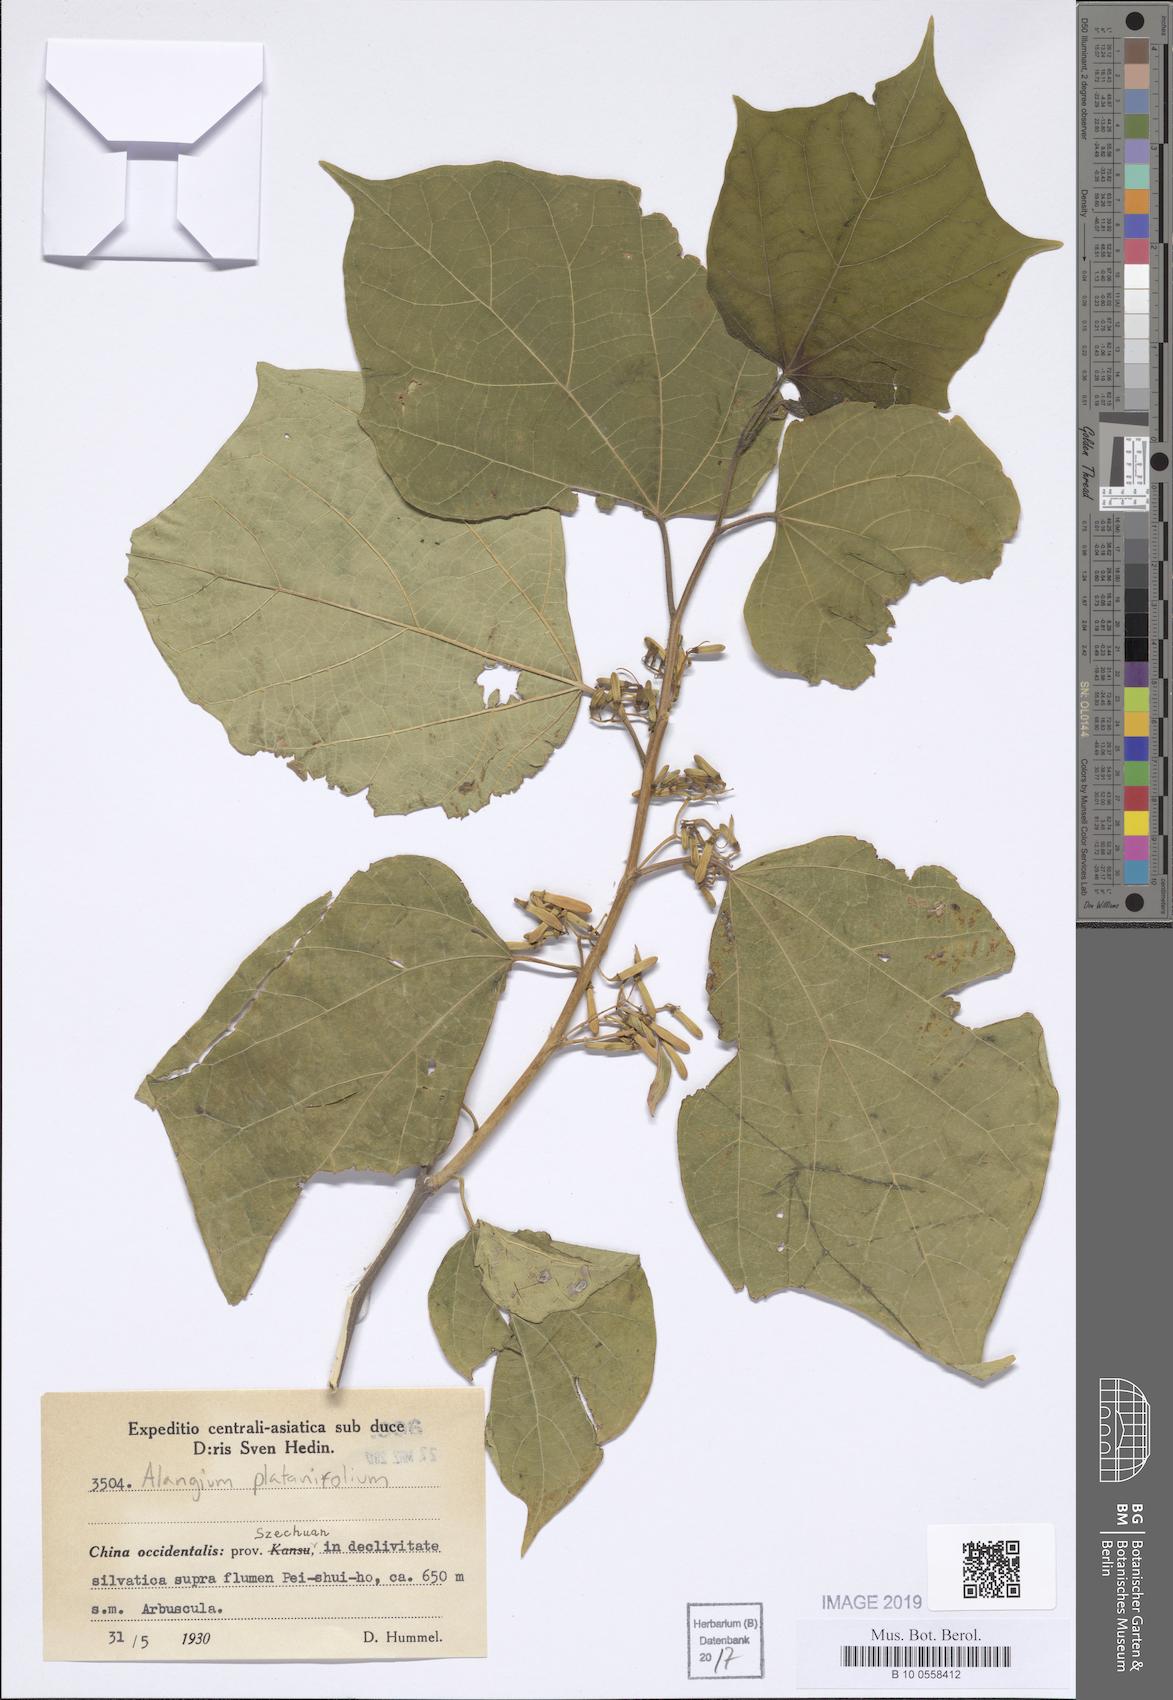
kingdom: Plantae
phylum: Tracheophyta
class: Magnoliopsida
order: Cornales
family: Cornaceae
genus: Alangium
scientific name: Alangium platanifolium
